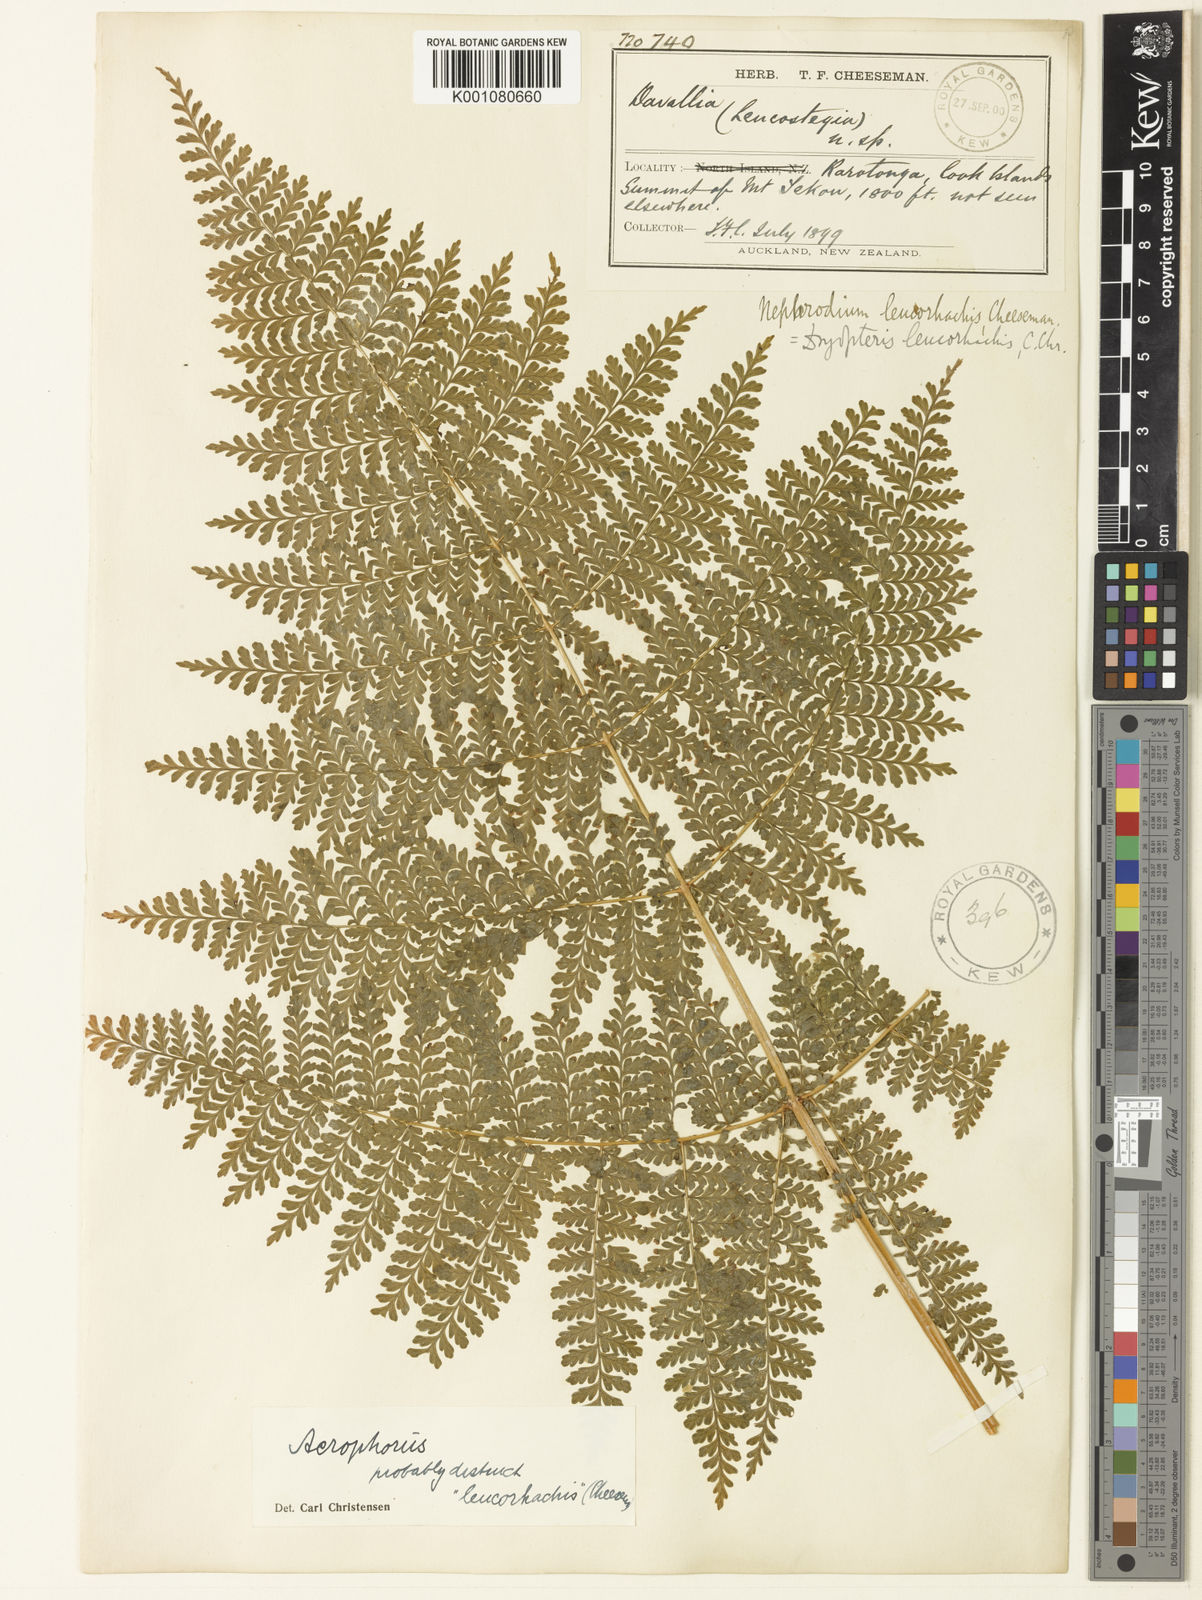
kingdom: Plantae
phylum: Tracheophyta
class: Polypodiopsida
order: Polypodiales
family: Dryopteridaceae
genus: Dryopteris
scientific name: Dryopteris leucorhachis
